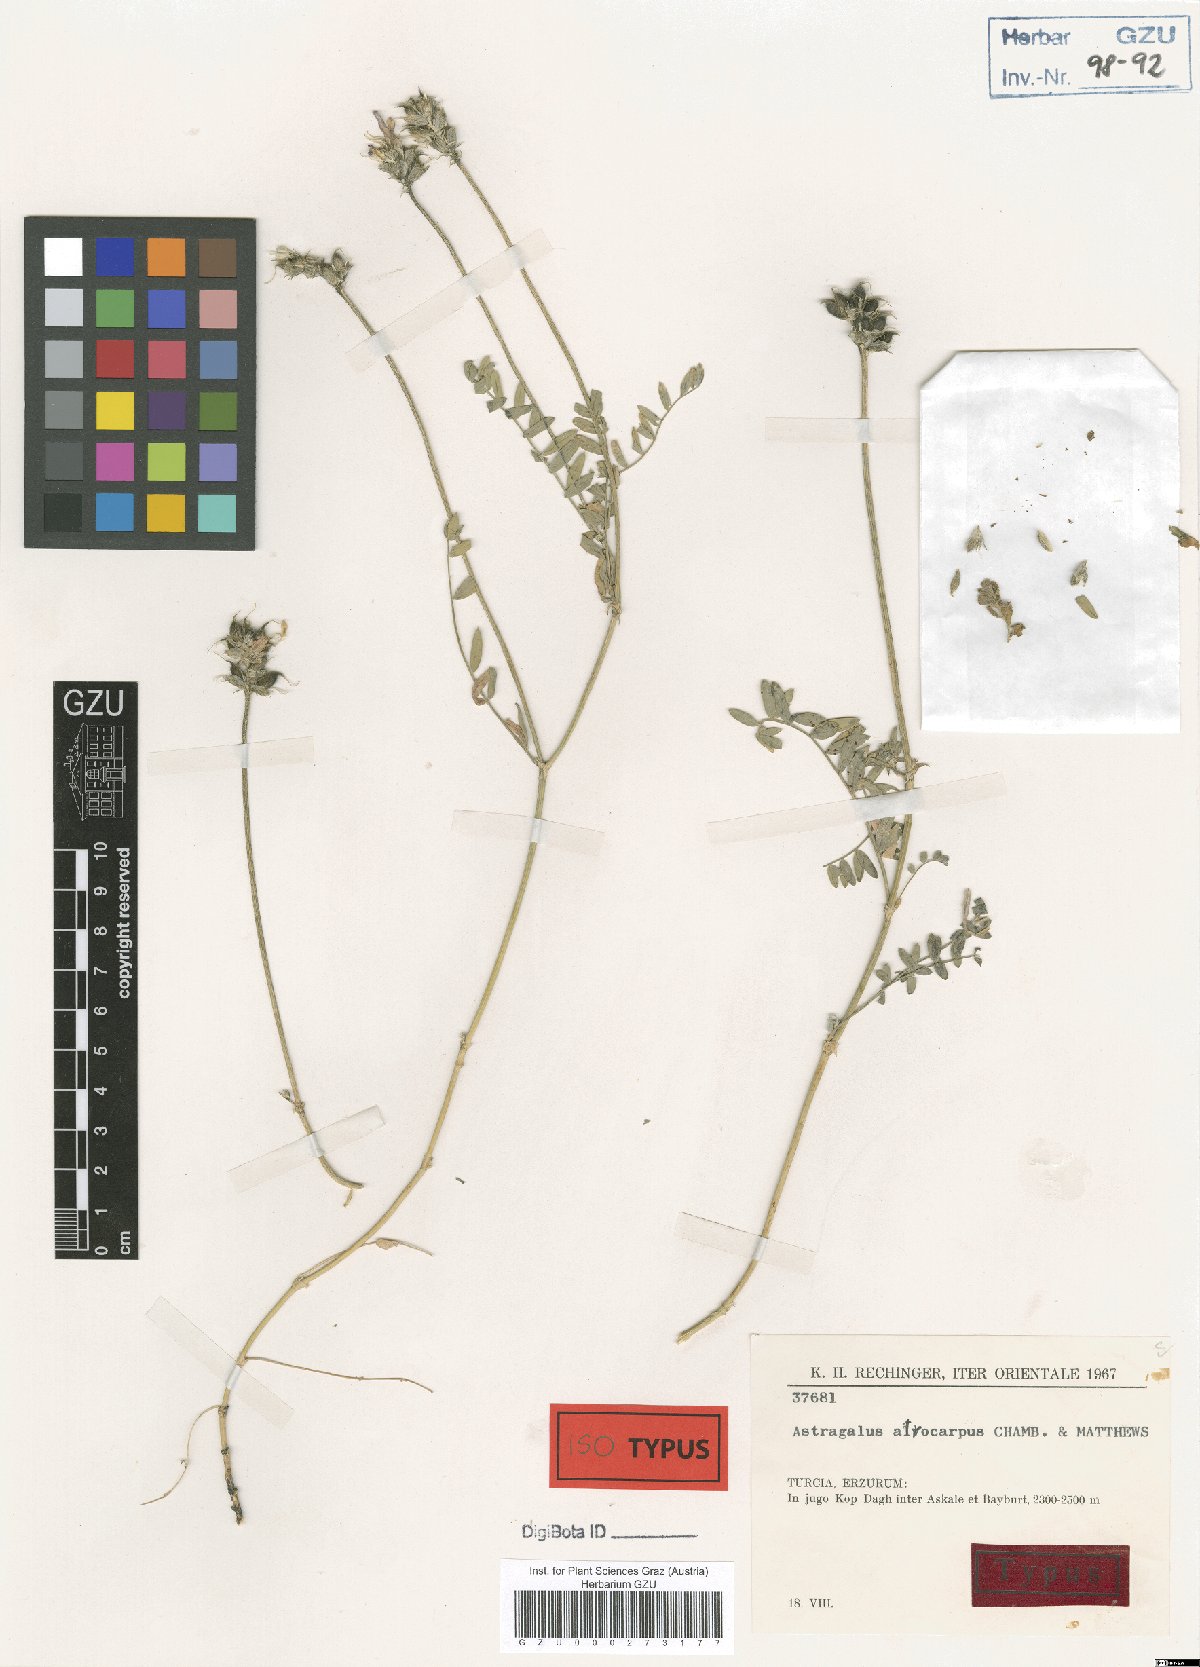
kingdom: Plantae
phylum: Tracheophyta
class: Magnoliopsida
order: Fabales
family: Fabaceae
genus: Astragalus
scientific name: Astragalus onobrychis
